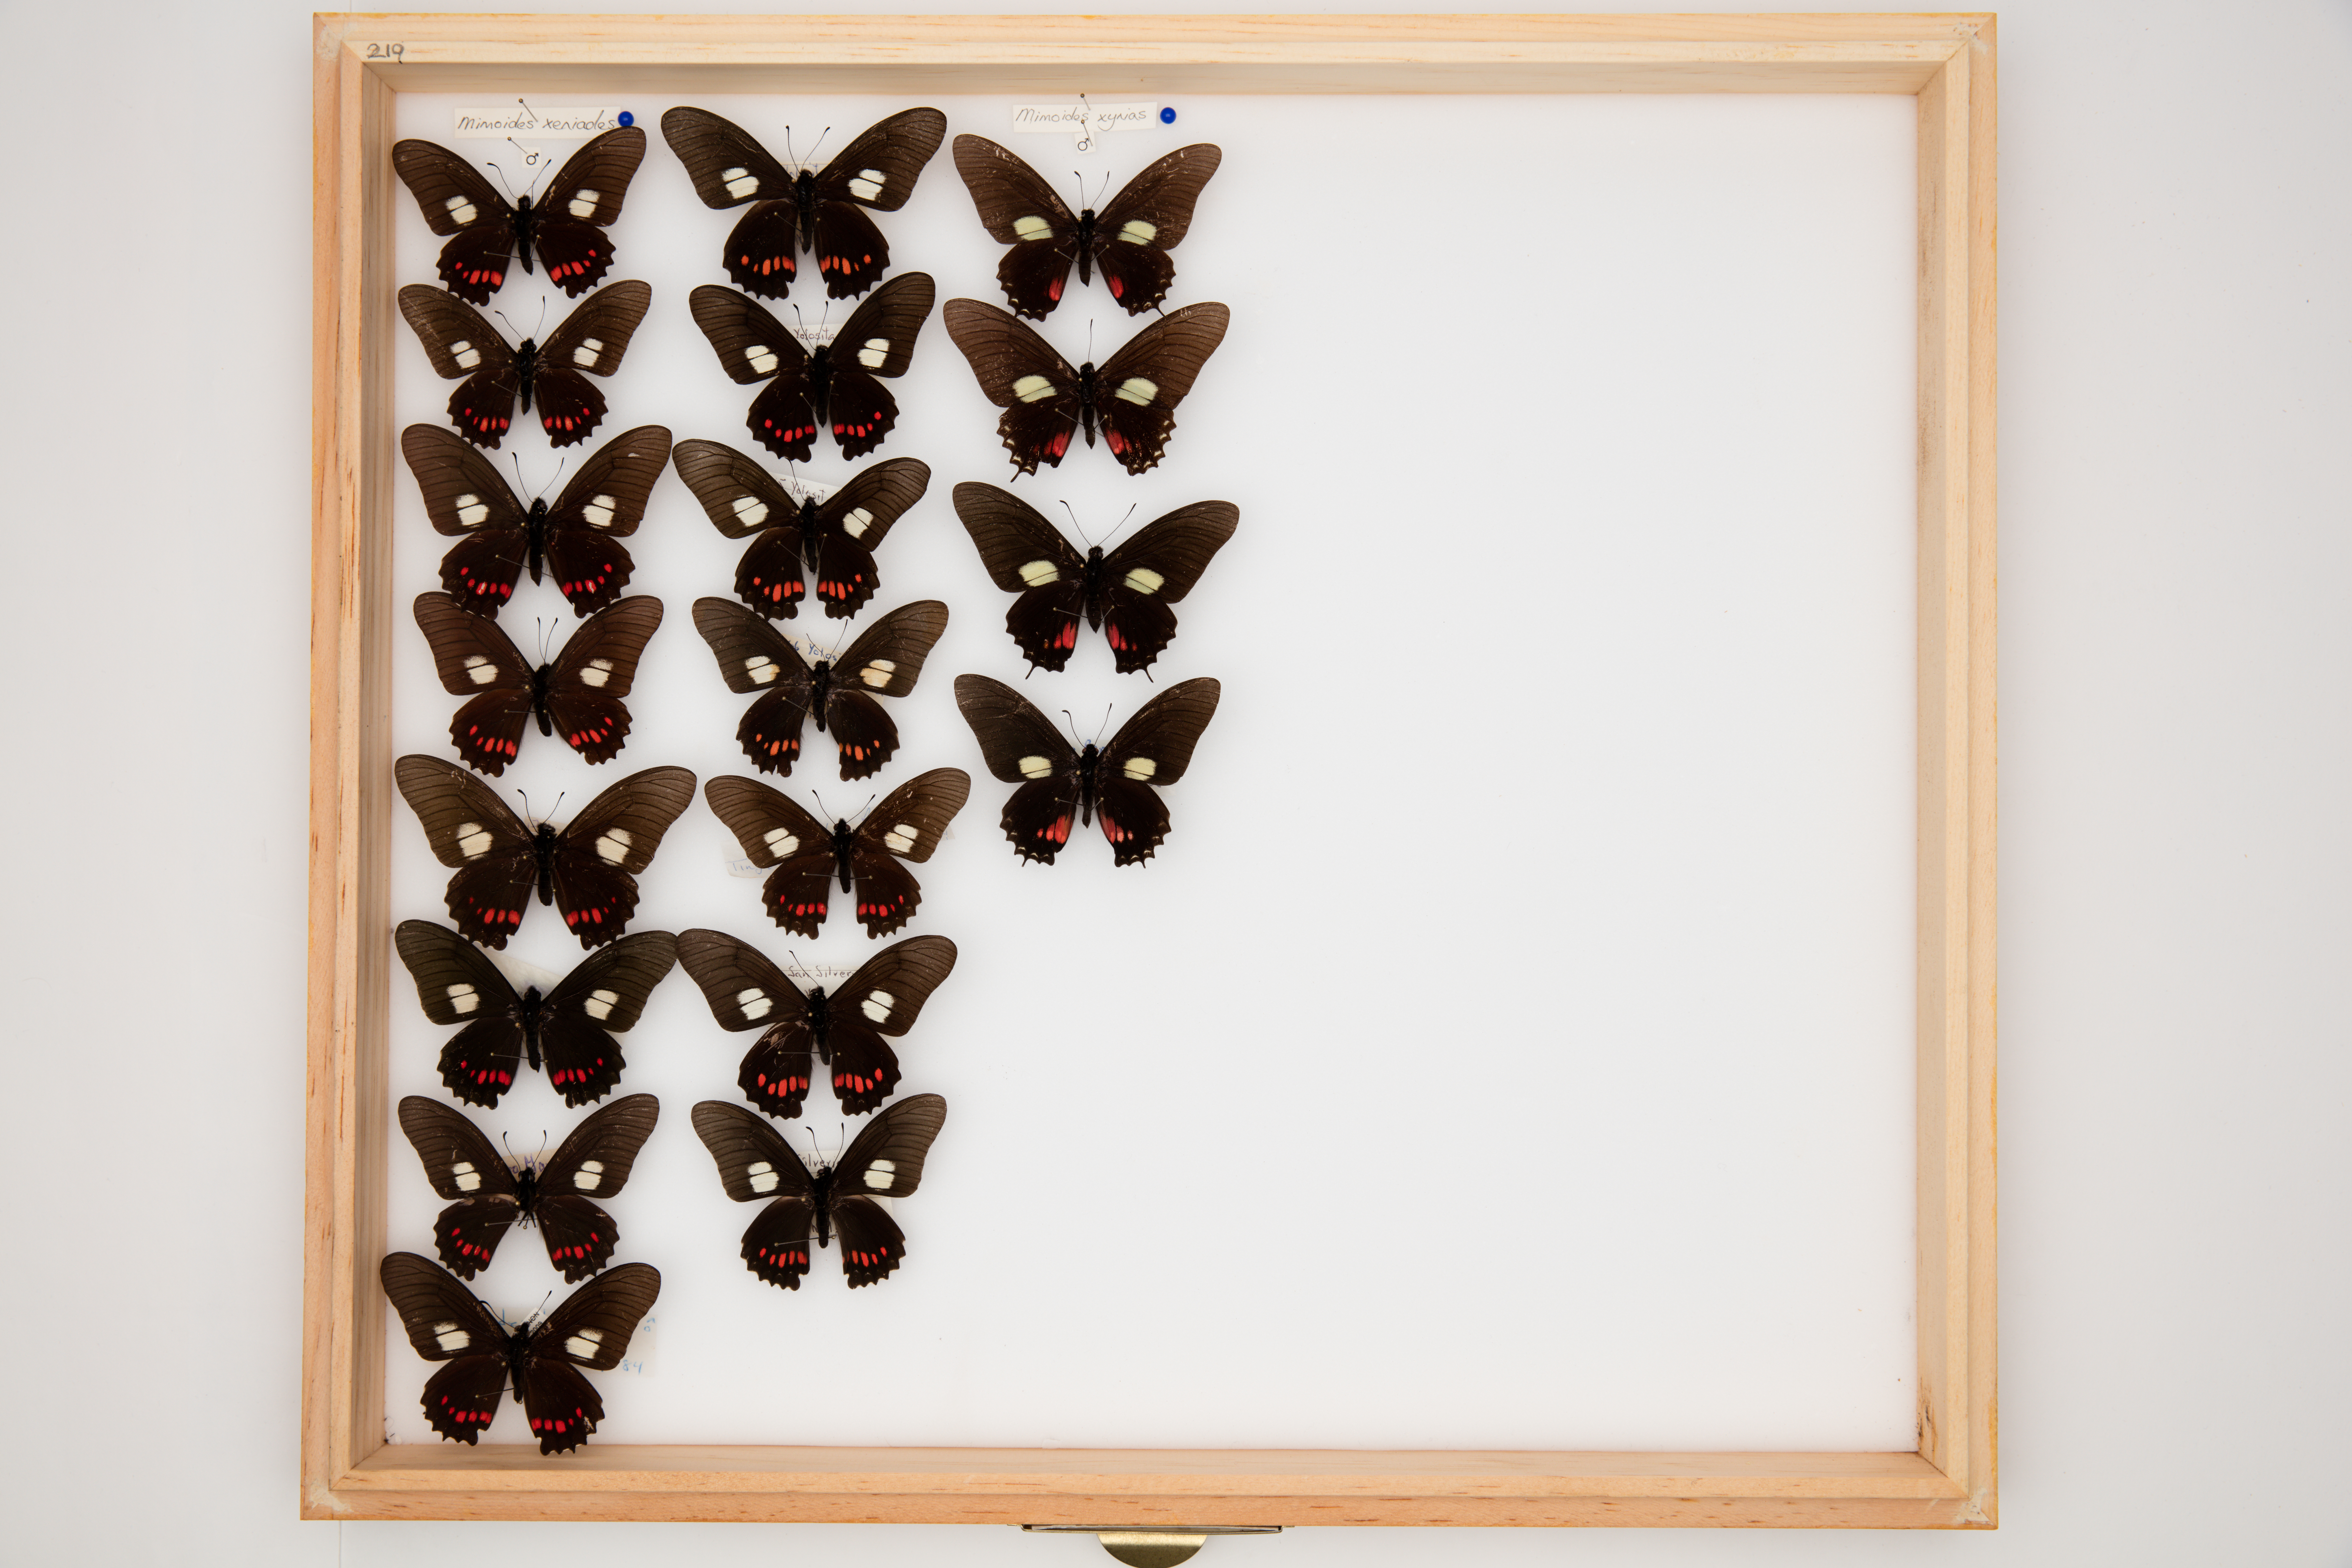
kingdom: Animalia
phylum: Arthropoda
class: Insecta
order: Lepidoptera
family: Papilionidae
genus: Mimoides
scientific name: Mimoides xeniades
